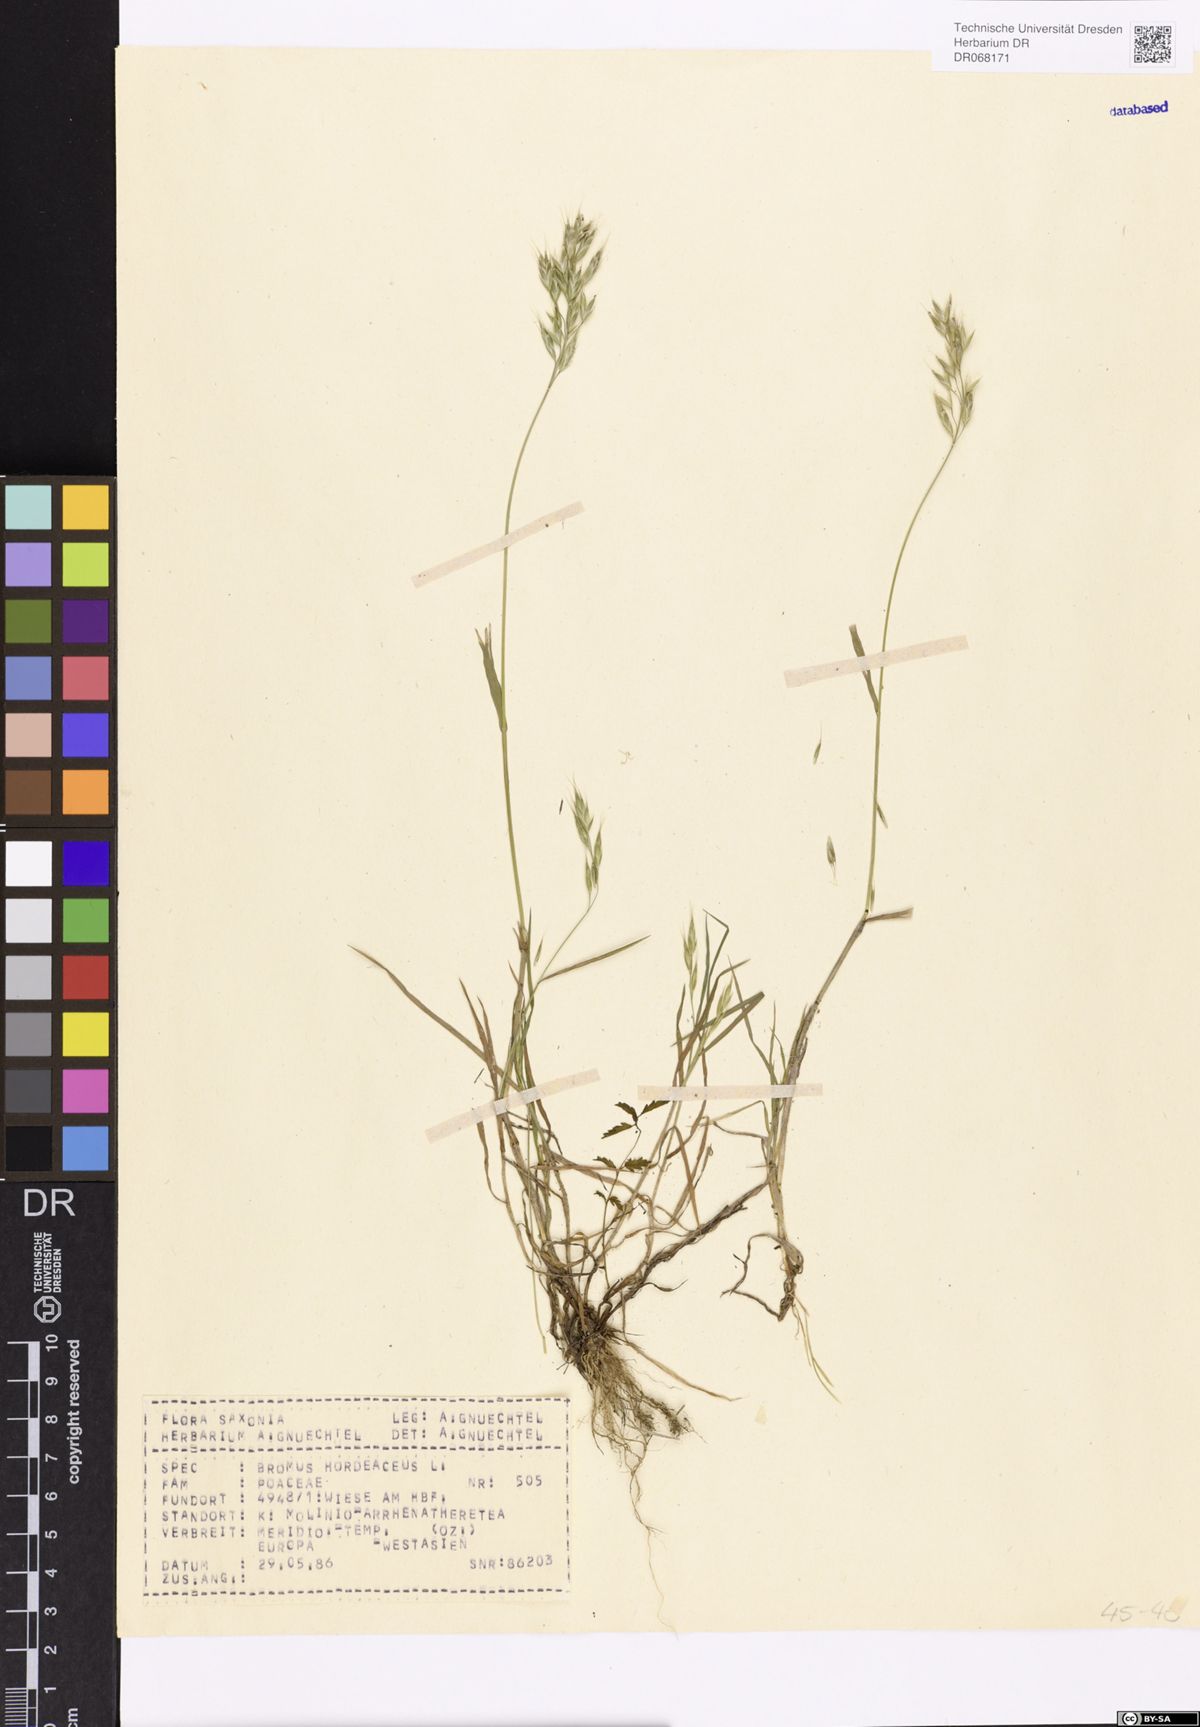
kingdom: Plantae
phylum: Tracheophyta
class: Liliopsida
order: Poales
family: Poaceae
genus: Bromus
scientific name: Bromus hordeaceus
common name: Soft brome
